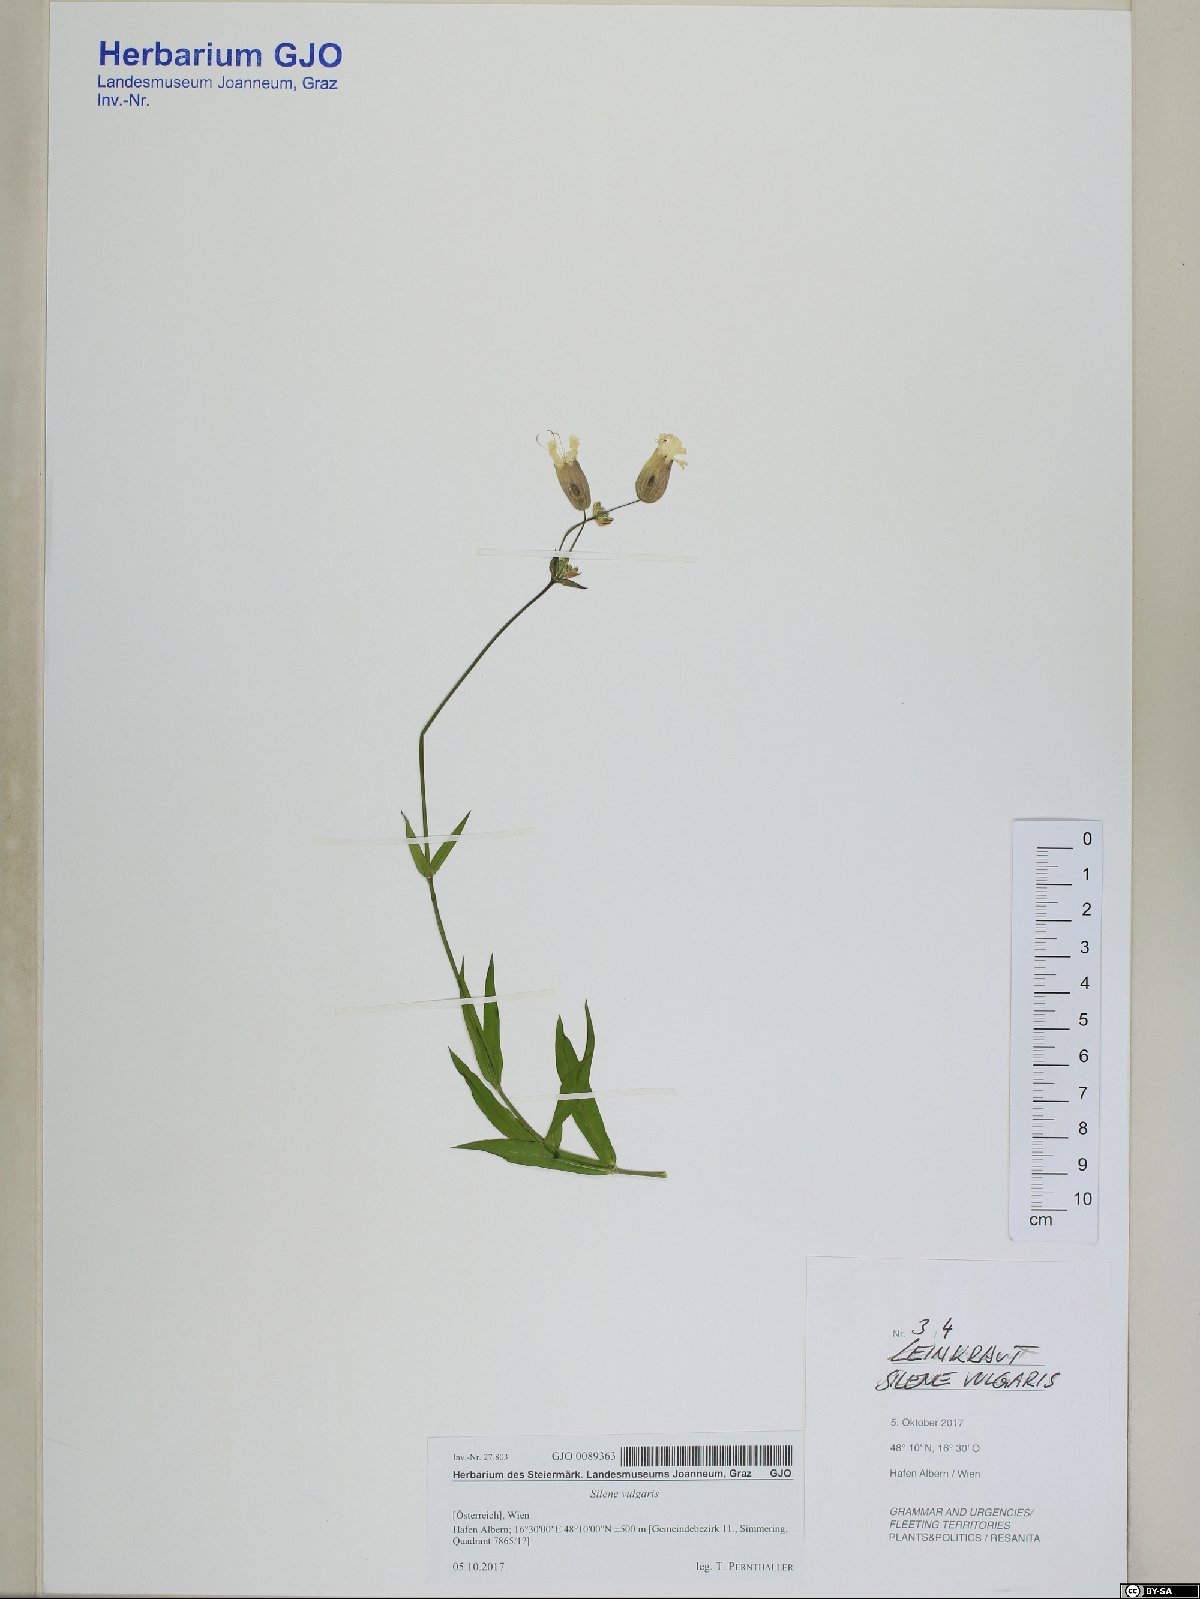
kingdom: Plantae
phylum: Tracheophyta
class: Magnoliopsida
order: Caryophyllales
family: Caryophyllaceae
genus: Silene
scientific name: Silene vulgaris
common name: Bladder campion
